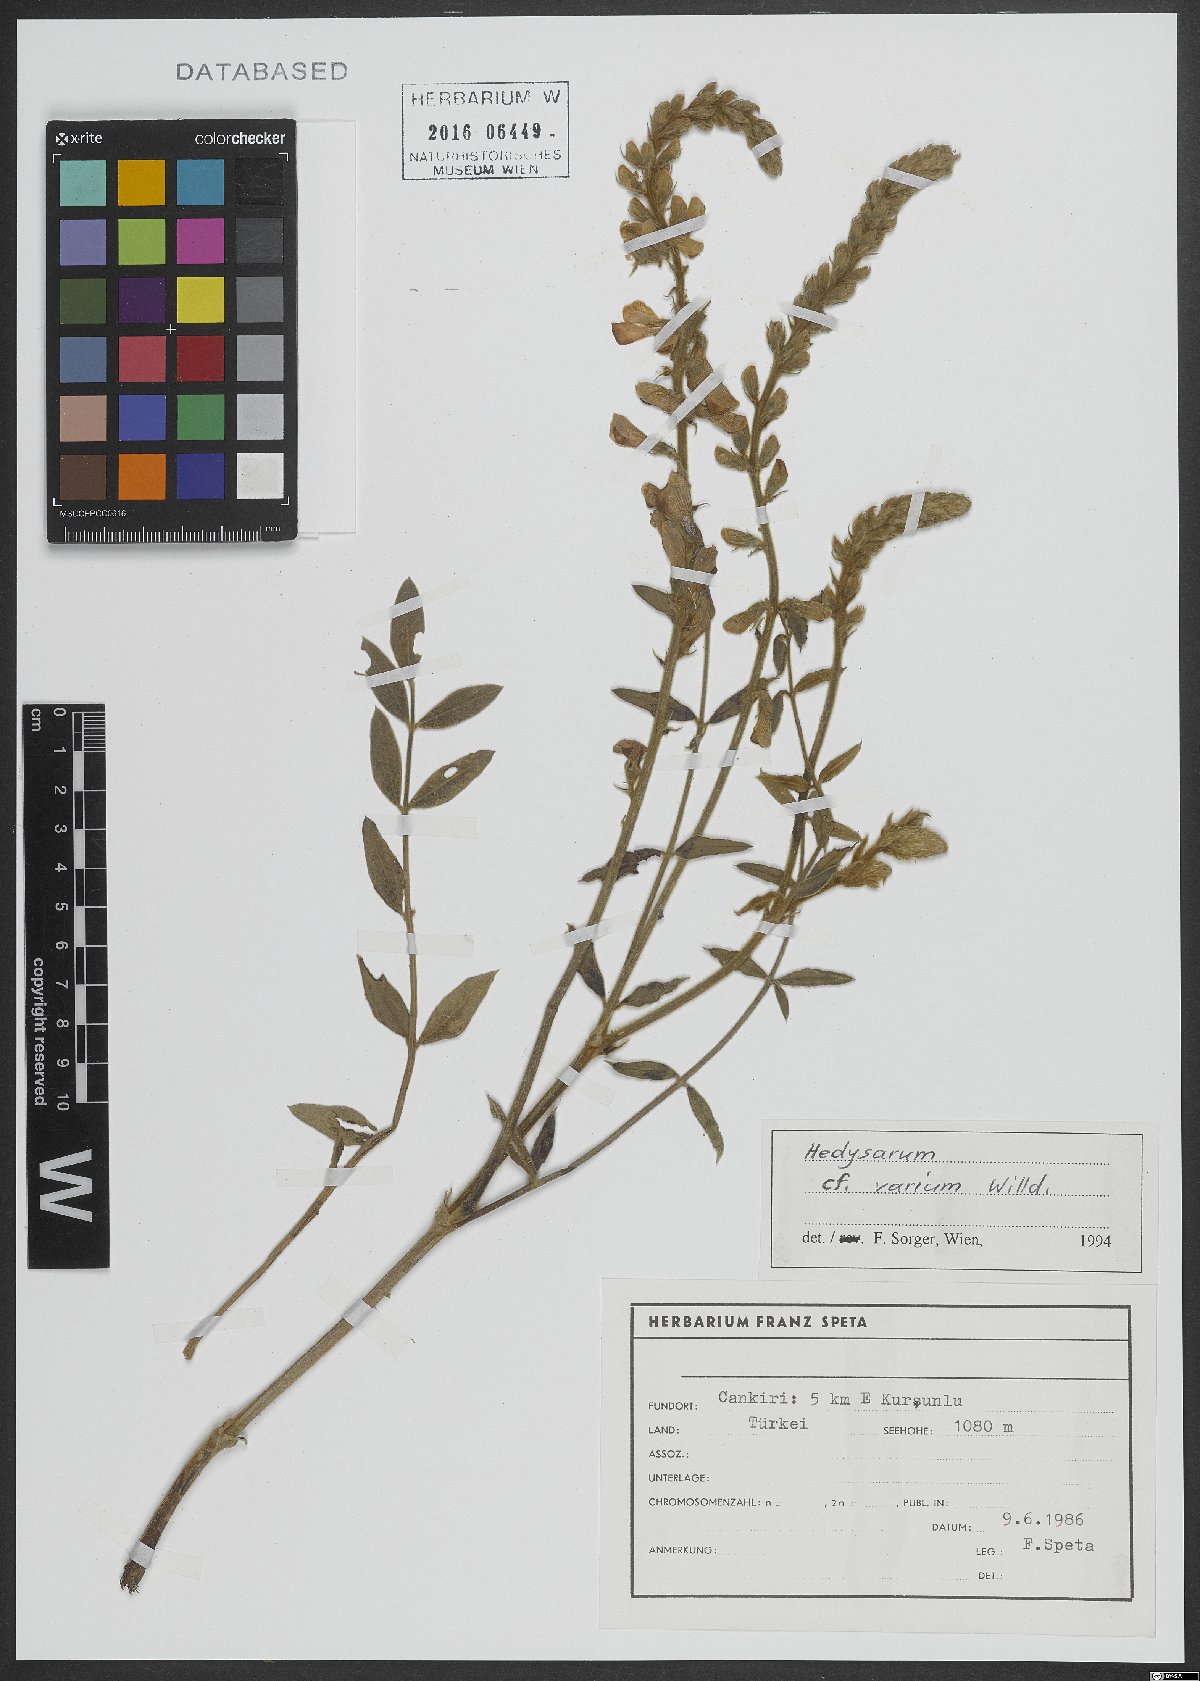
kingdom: Plantae
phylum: Tracheophyta
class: Magnoliopsida
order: Fabales
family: Fabaceae
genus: Hedysarum
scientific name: Hedysarum varium
